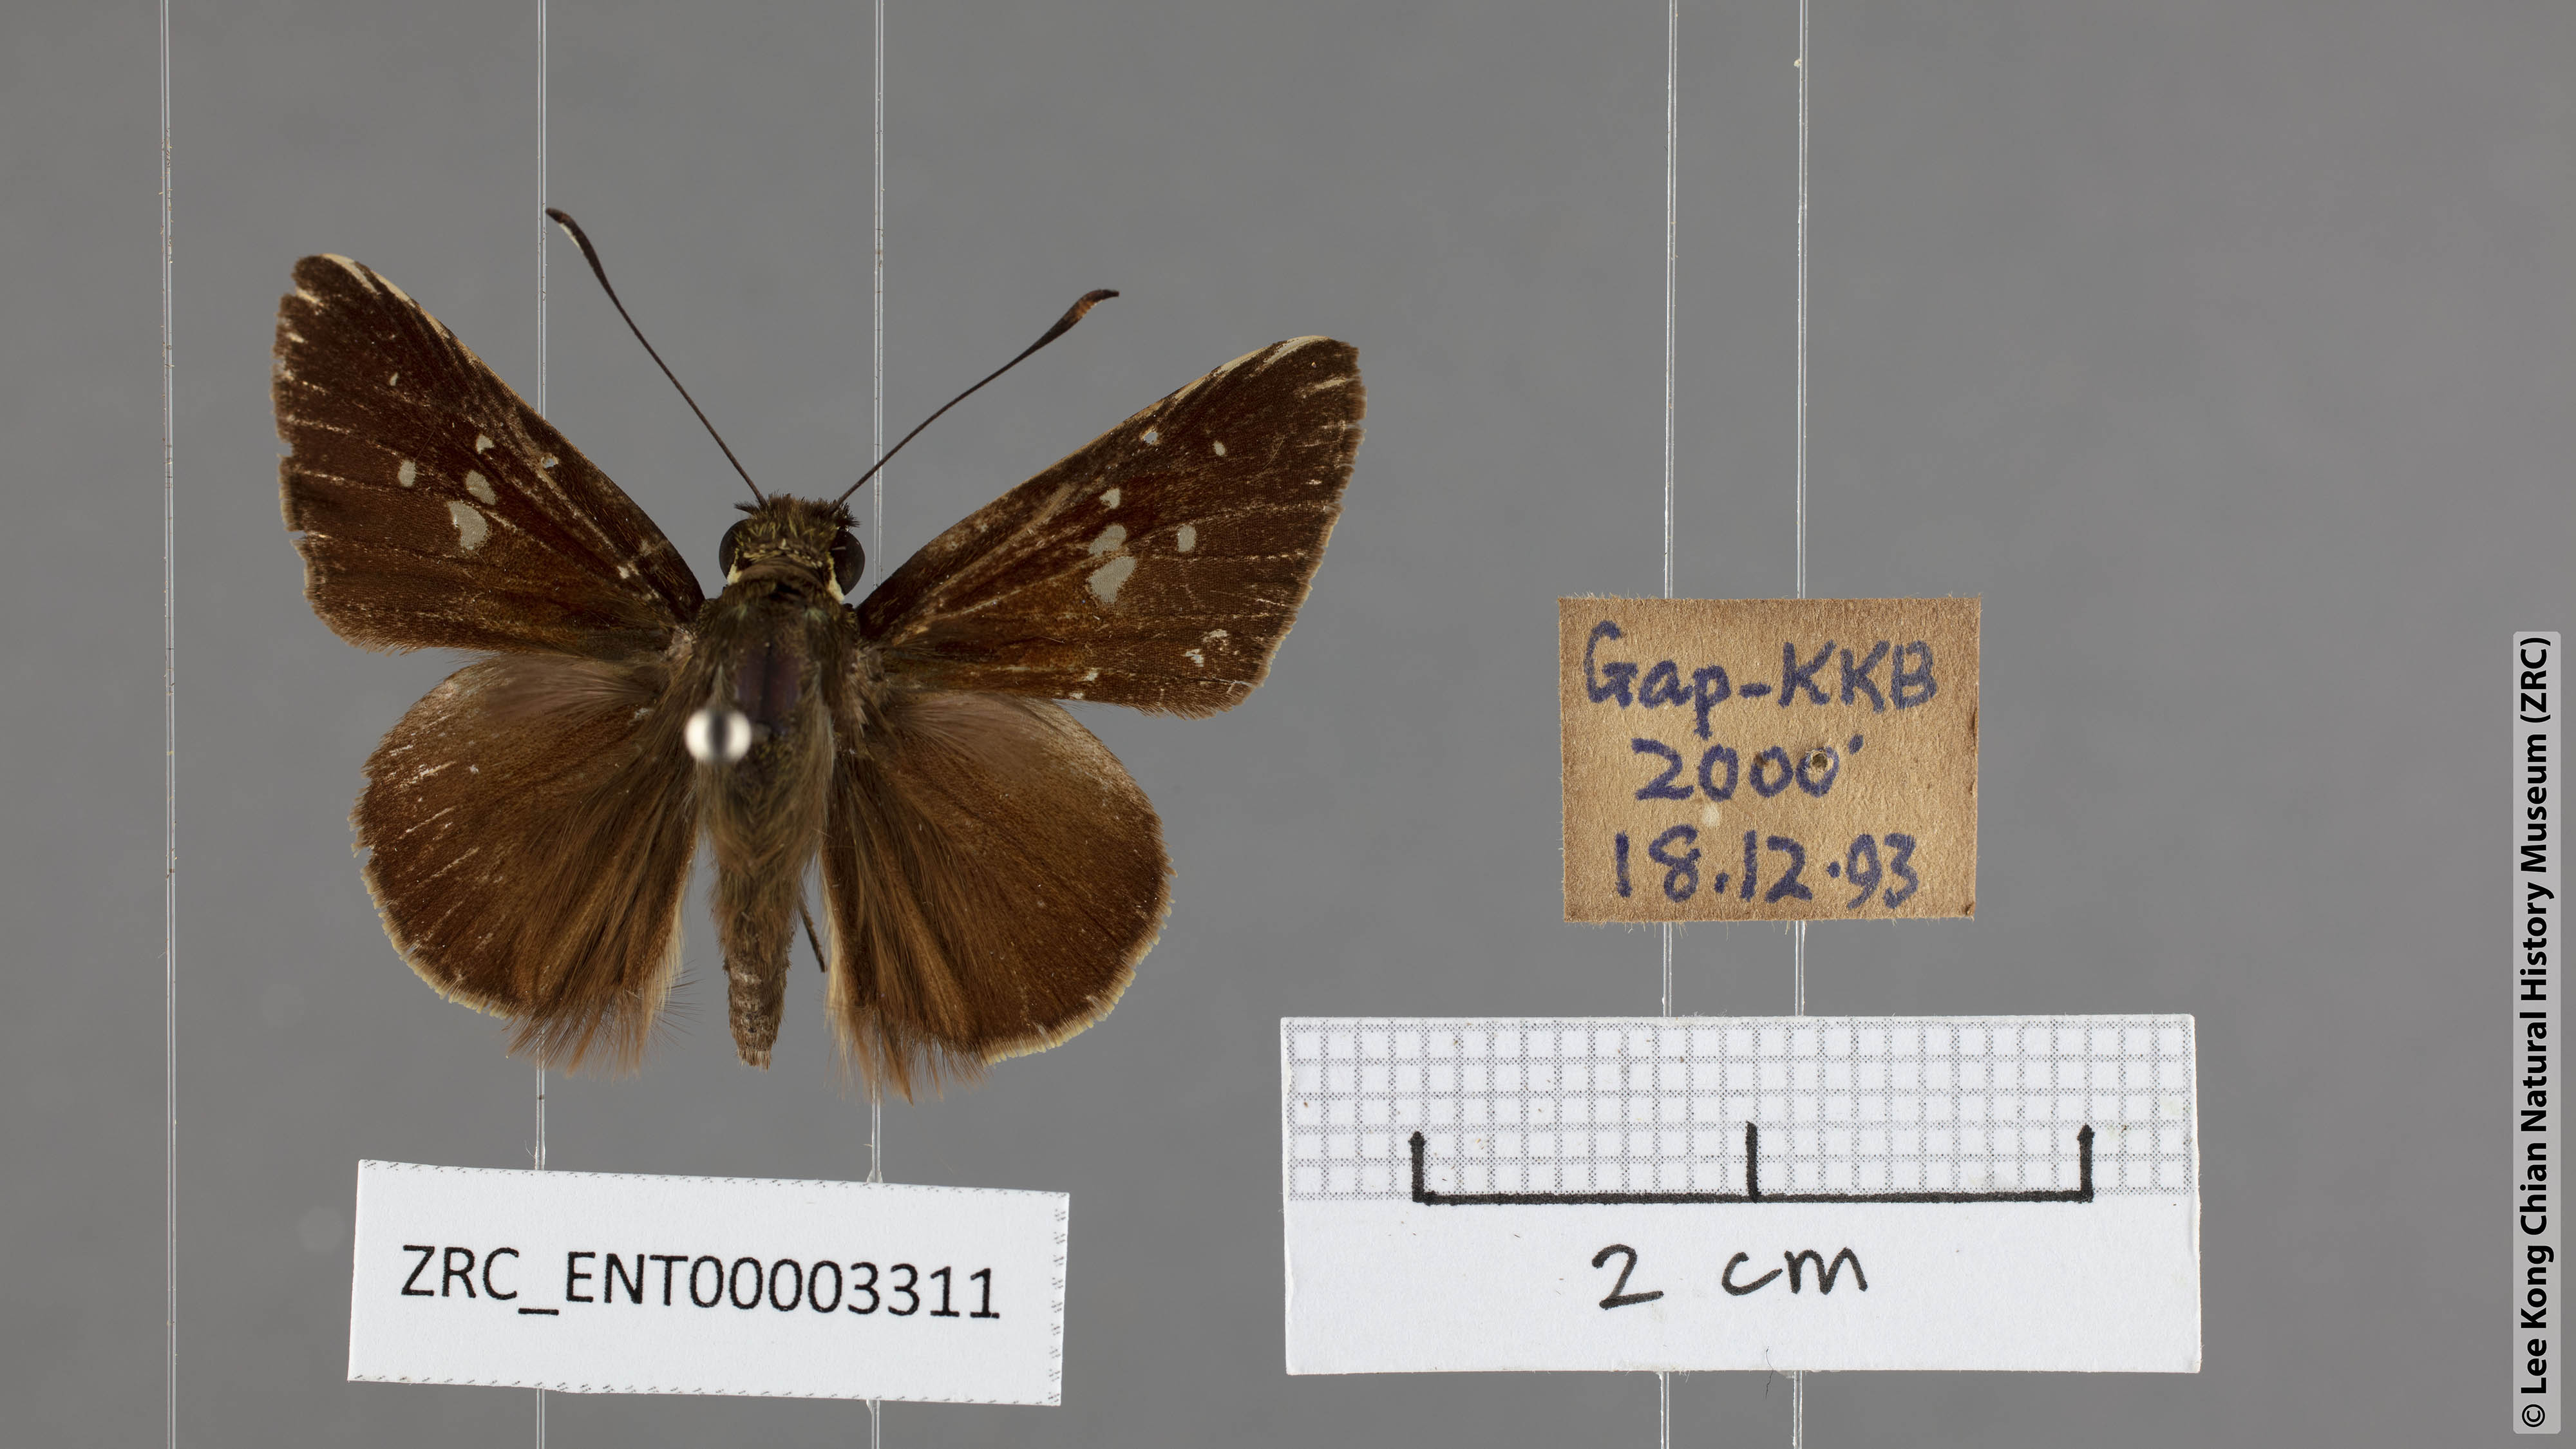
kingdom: Animalia
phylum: Arthropoda
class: Insecta
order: Lepidoptera
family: Hesperiidae
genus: Isma
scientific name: Isma
